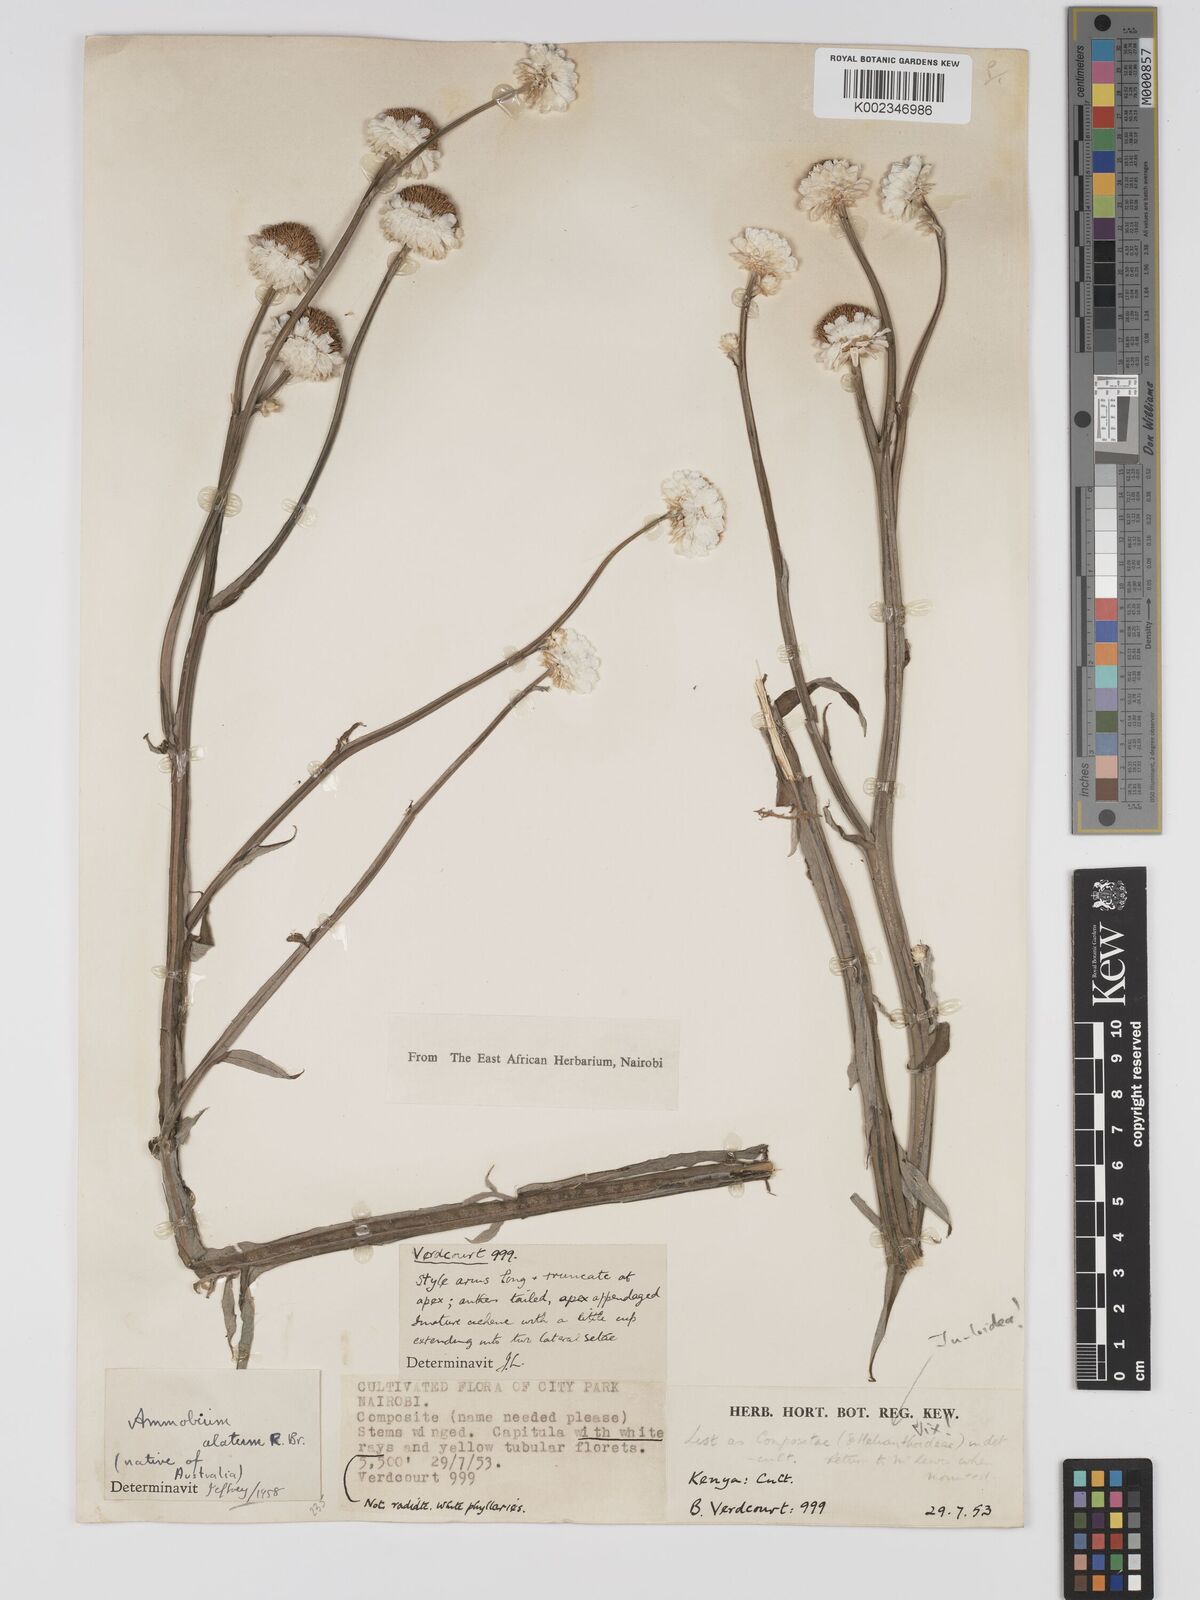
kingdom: Plantae
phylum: Tracheophyta
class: Magnoliopsida
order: Asterales
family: Asteraceae
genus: Ammobium
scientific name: Ammobium alatum
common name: Winged everlasting
